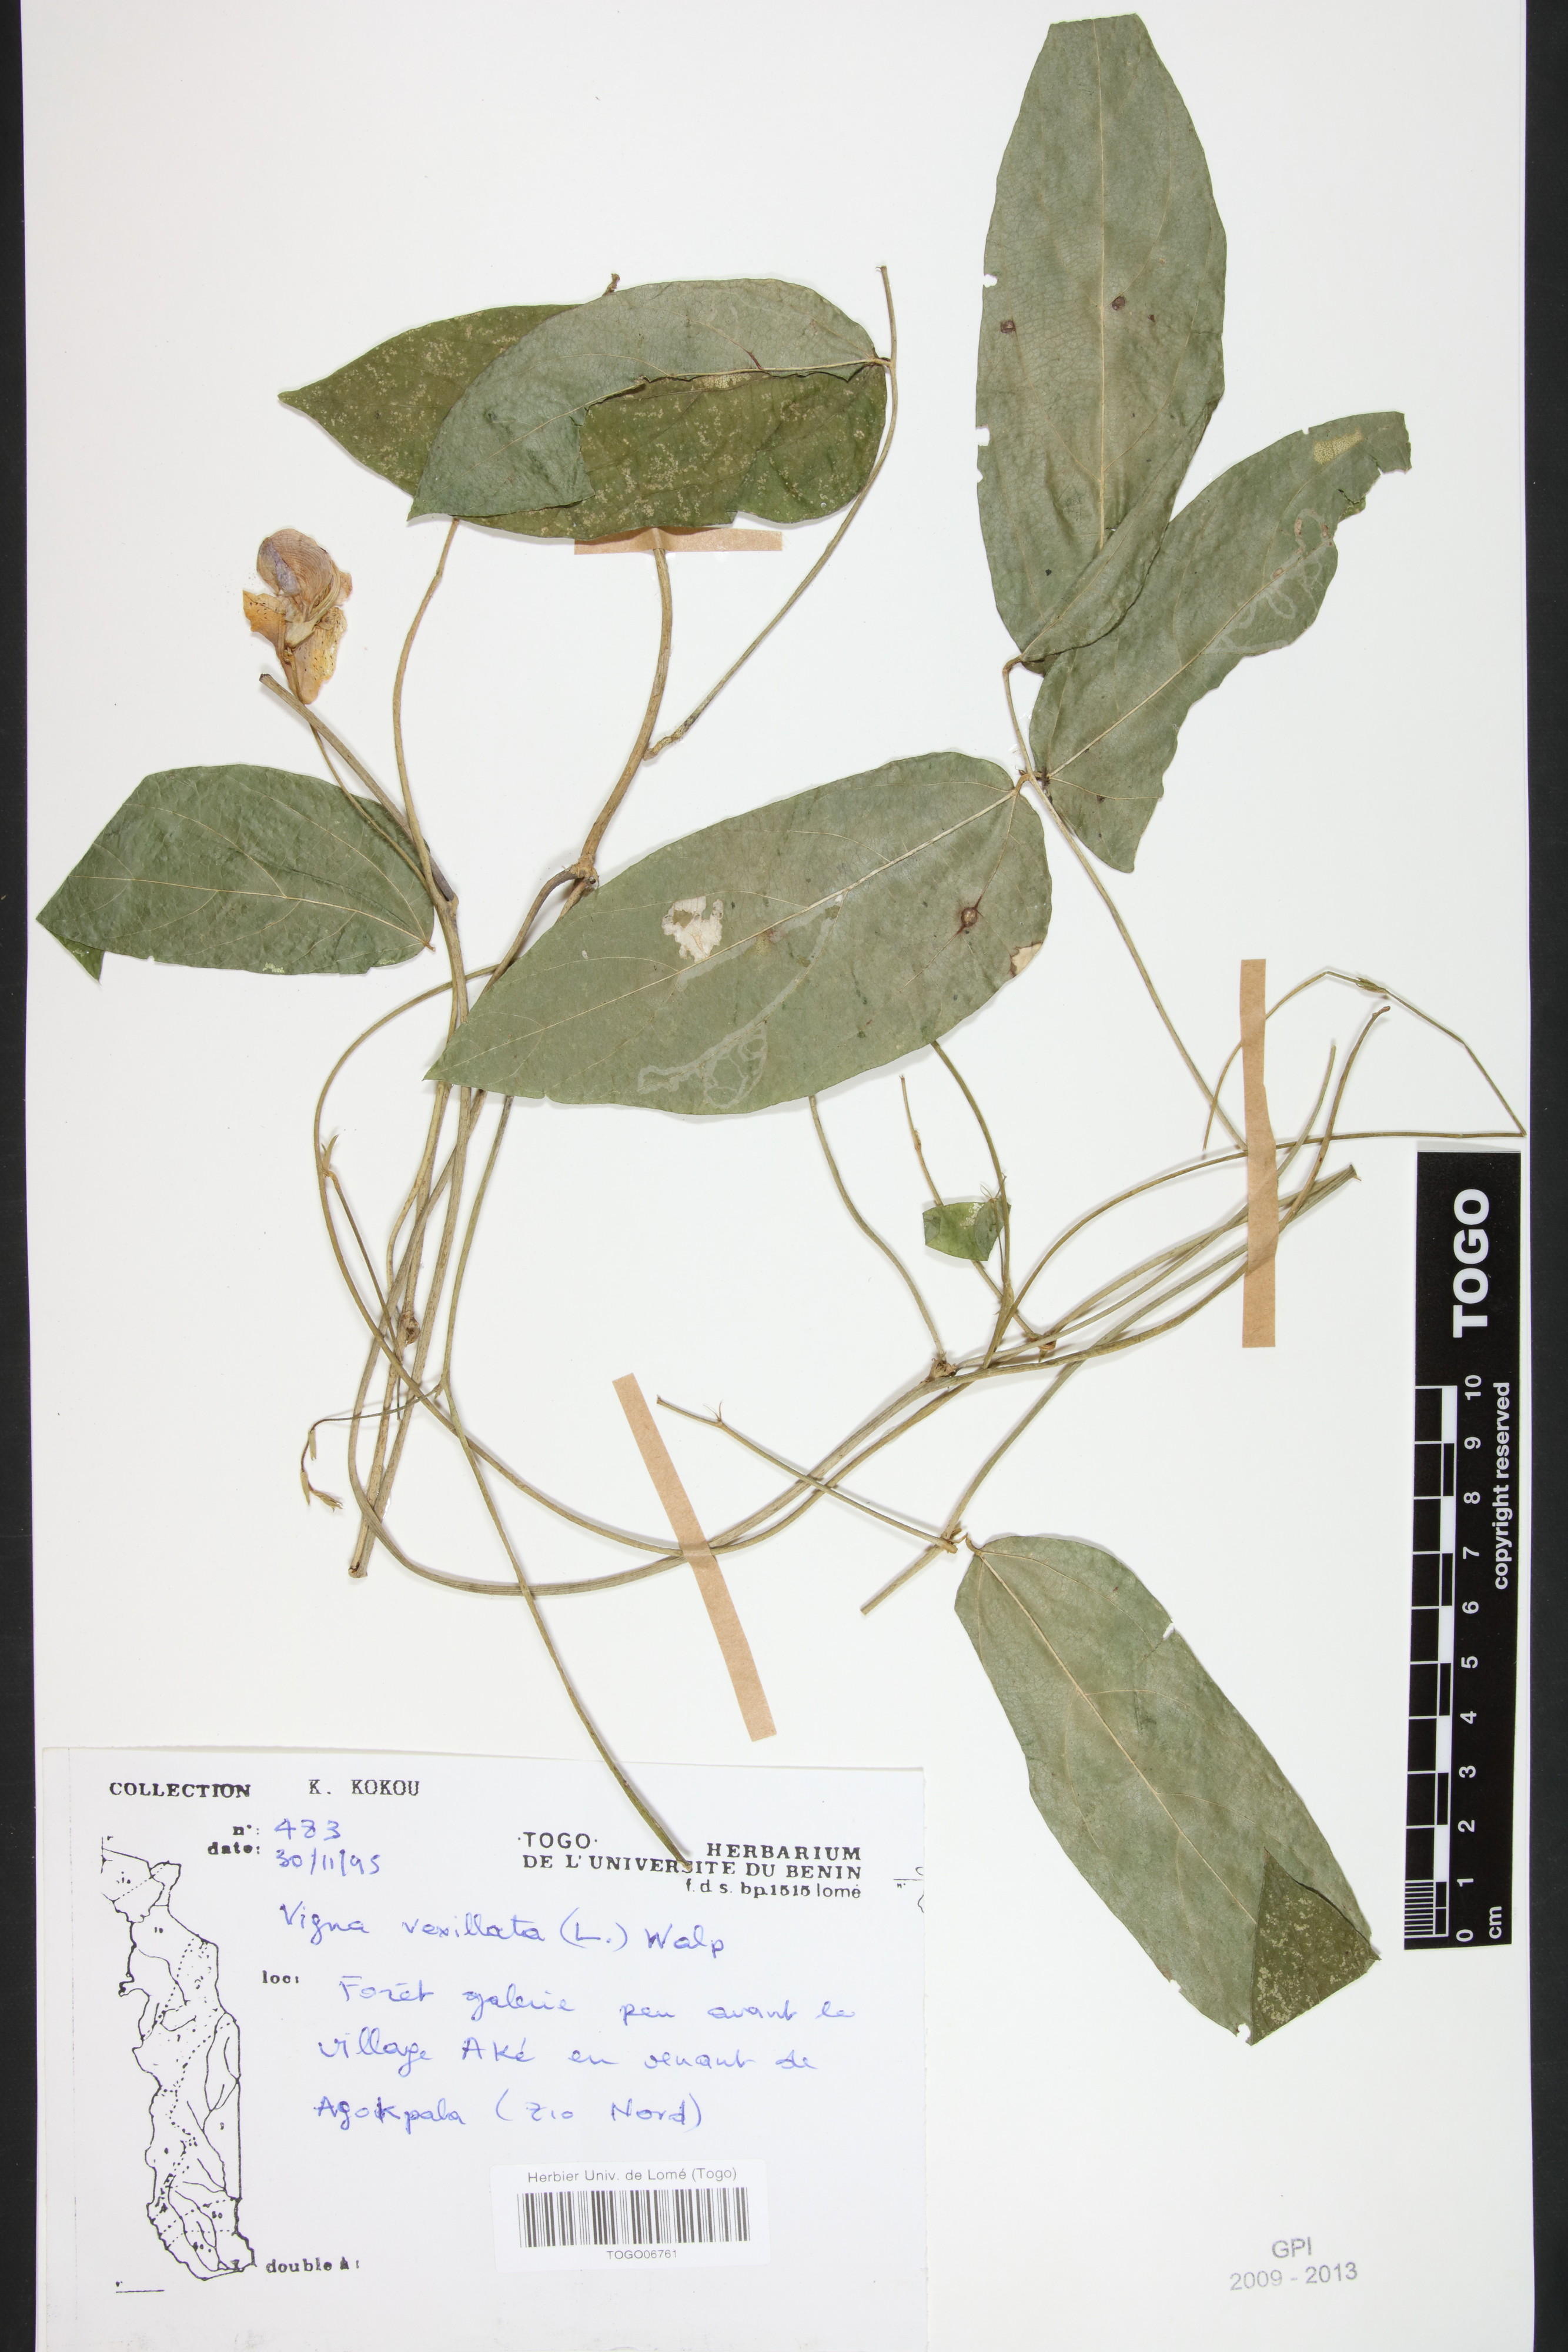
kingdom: Plantae
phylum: Tracheophyta
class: Magnoliopsida
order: Fabales
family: Fabaceae
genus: Vigna
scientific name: Vigna vexillata
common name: Zombi pea
